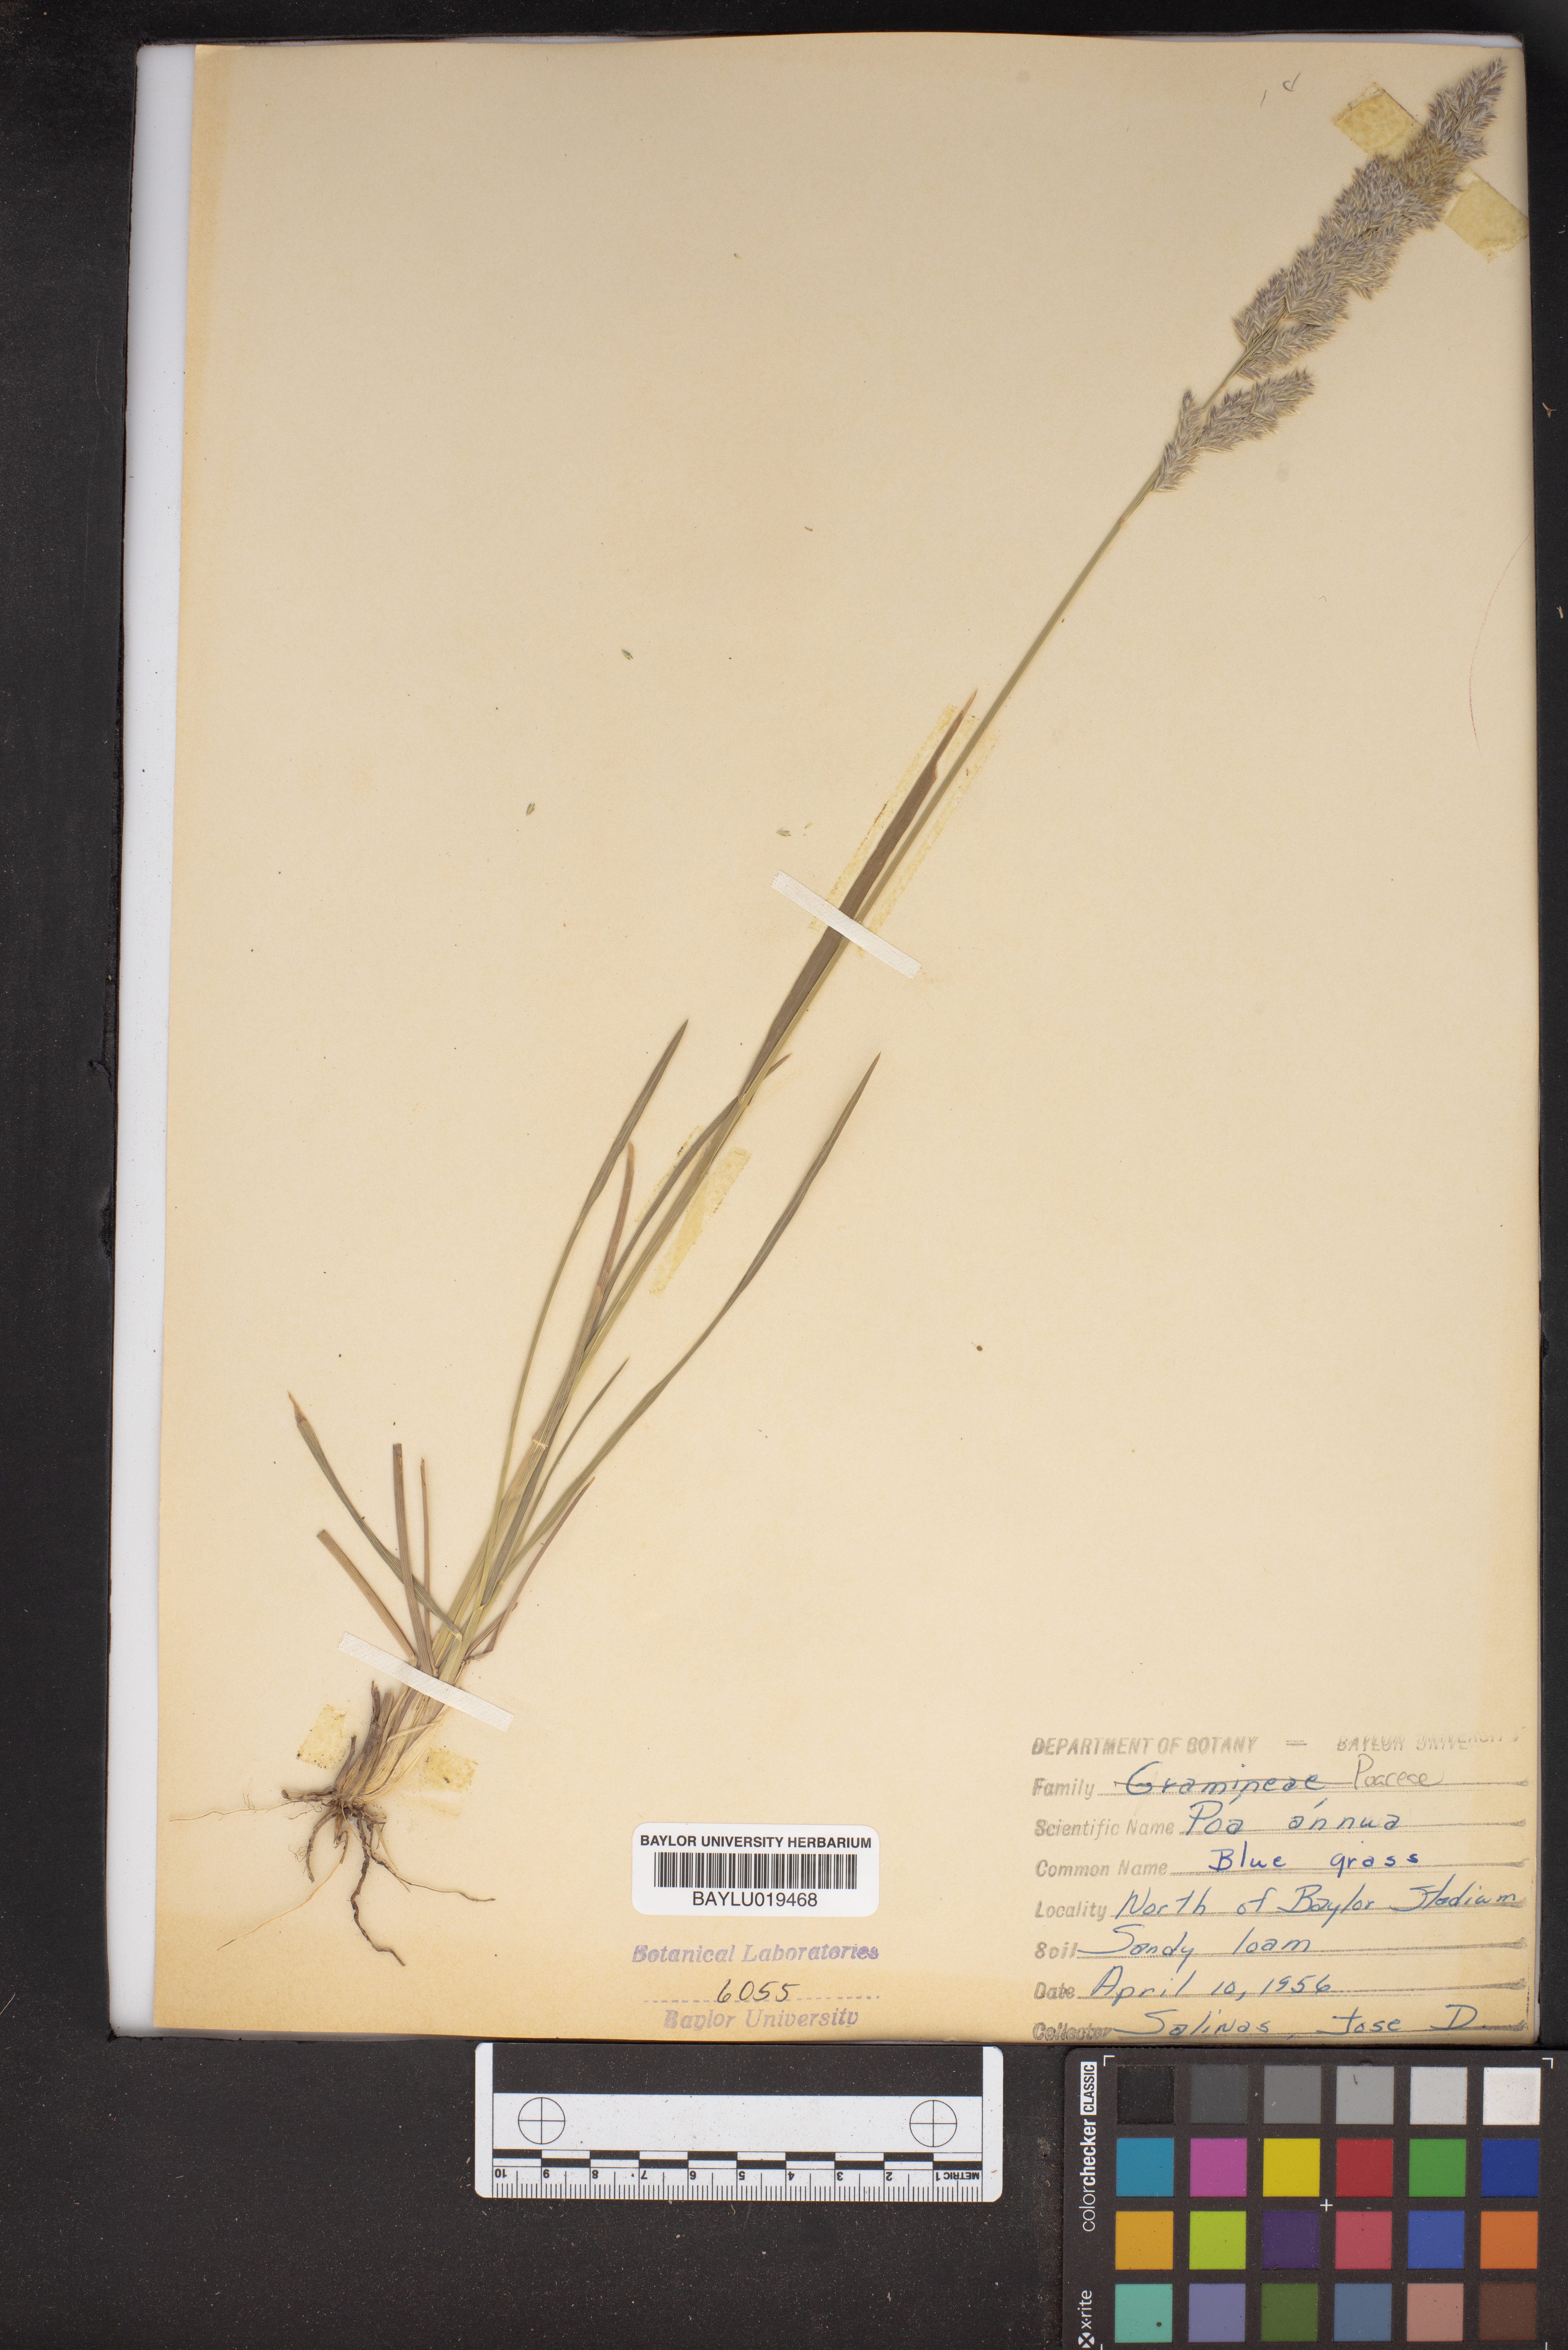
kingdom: Plantae
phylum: Tracheophyta
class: Liliopsida
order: Poales
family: Poaceae
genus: Poa
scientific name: Poa annua
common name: Annual bluegrass
